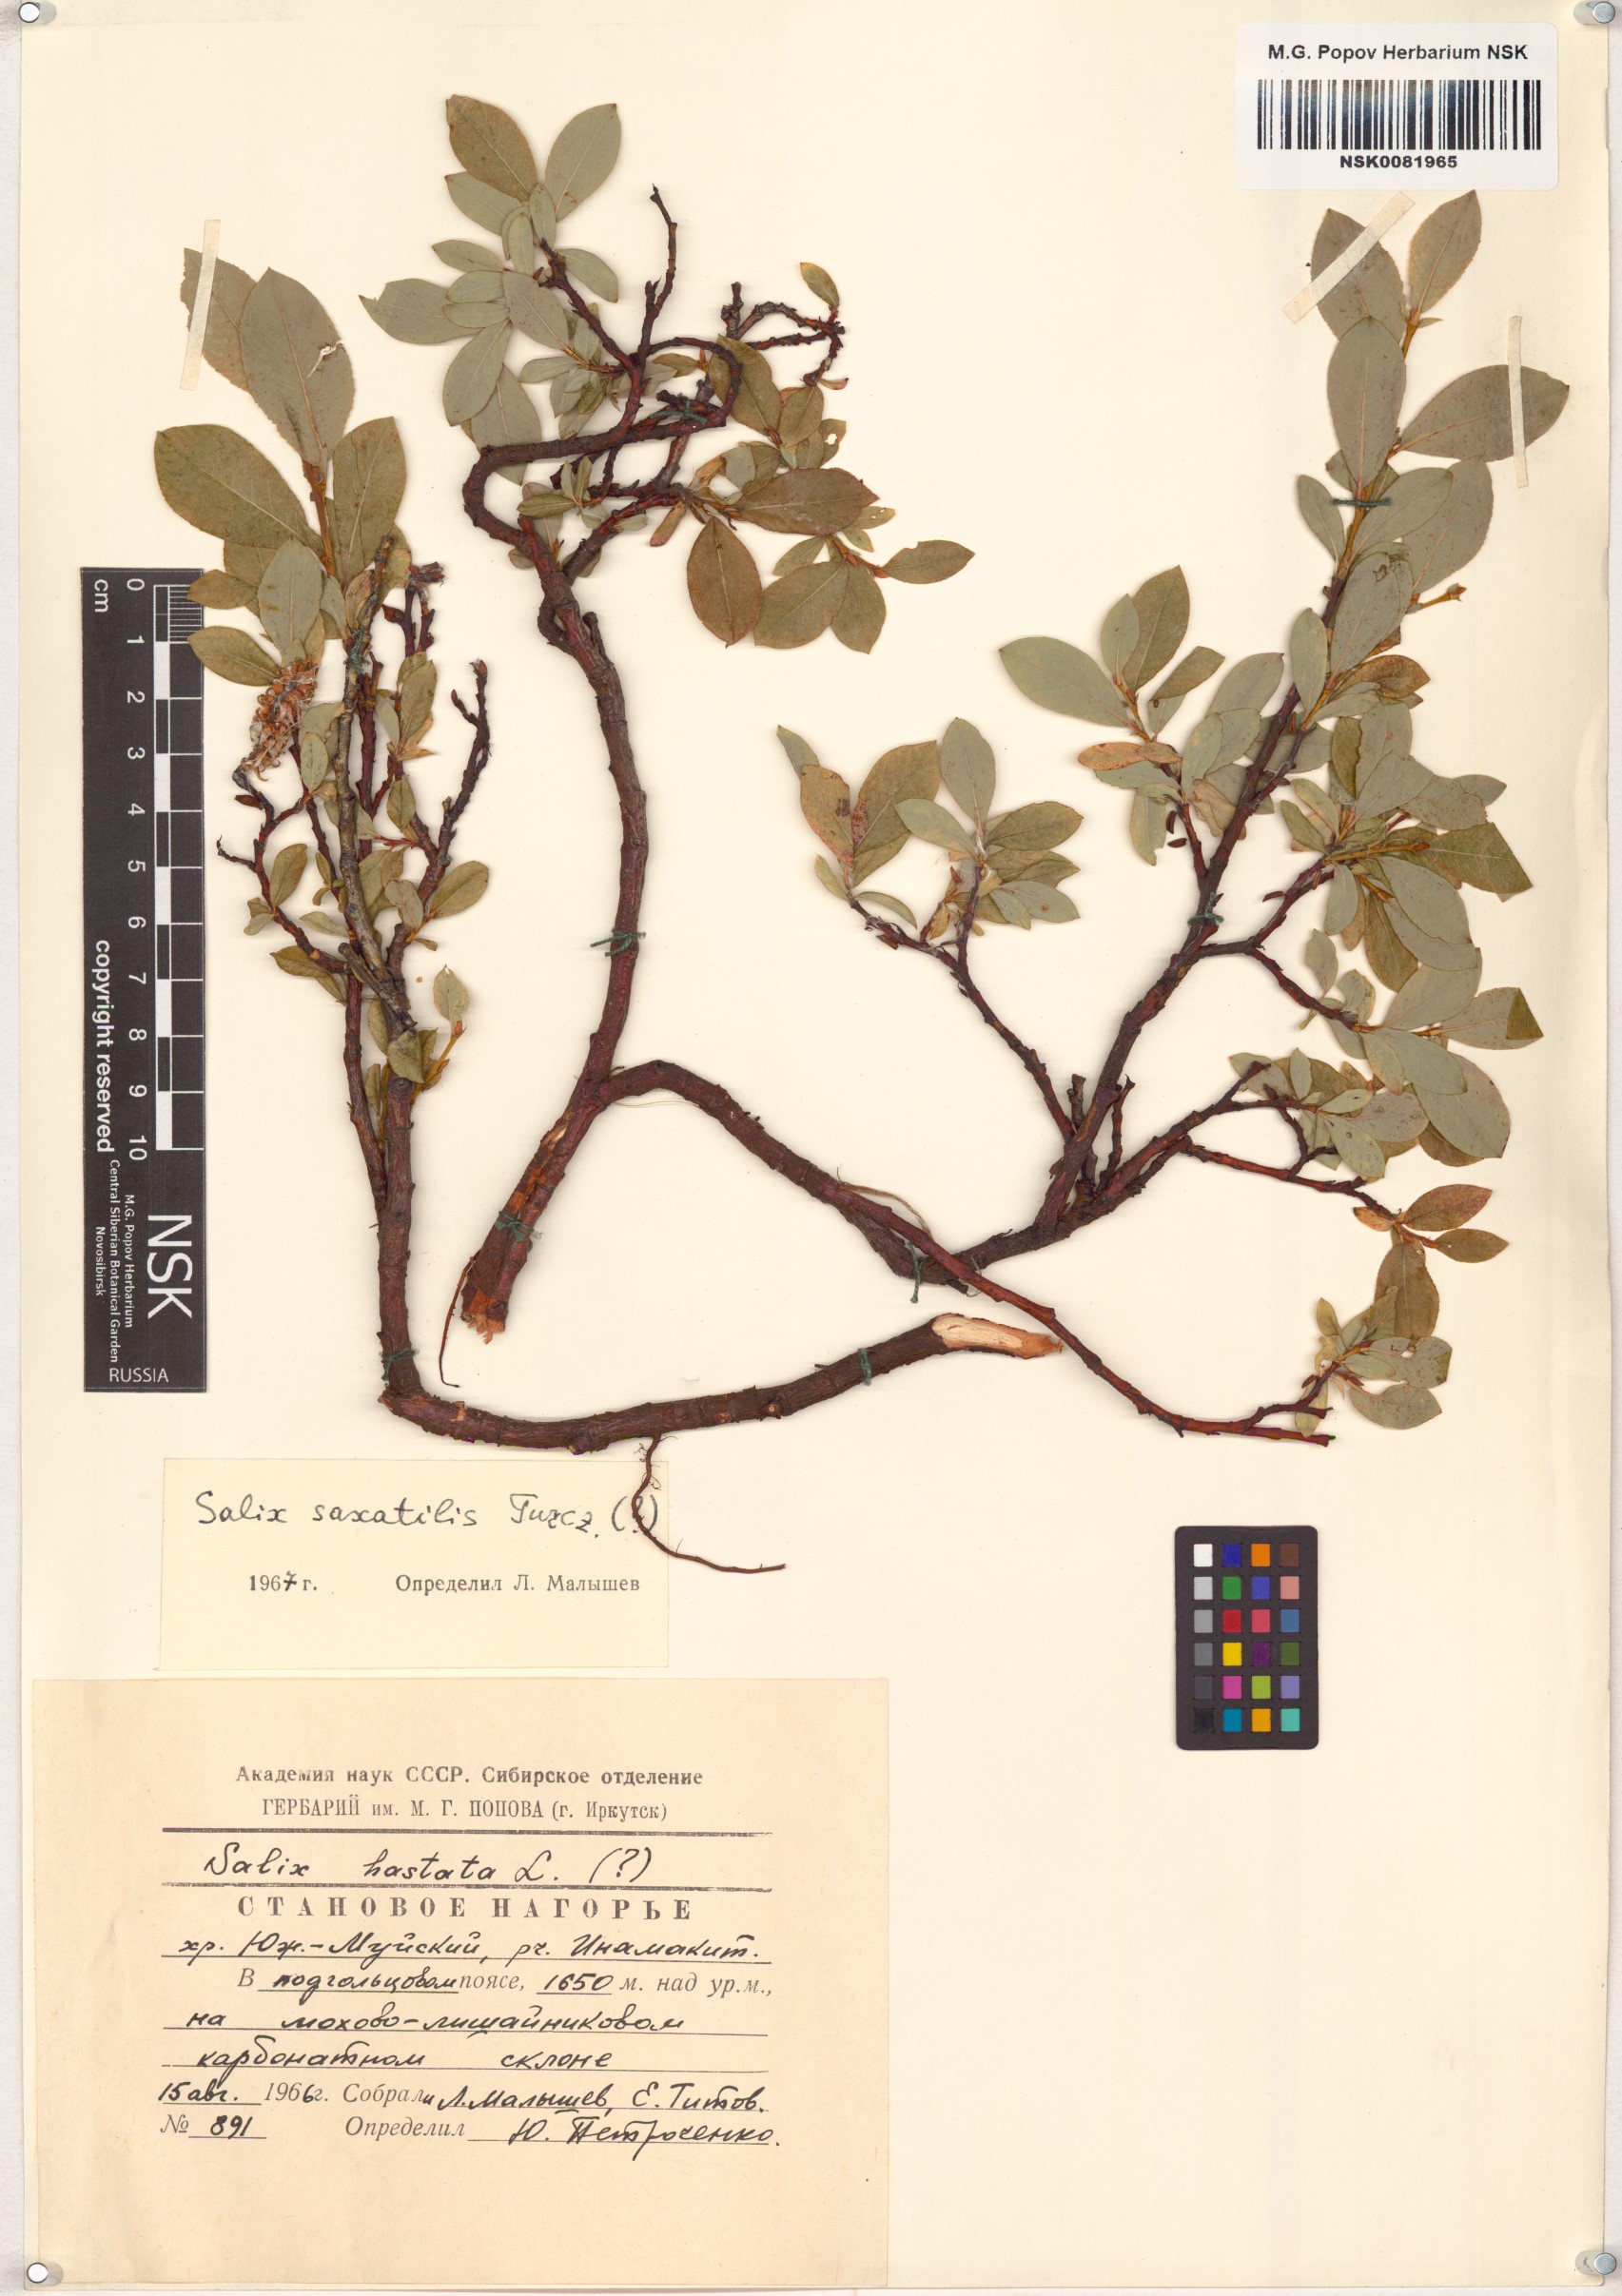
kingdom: Plantae
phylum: Tracheophyta
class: Magnoliopsida
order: Malpighiales
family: Salicaceae
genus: Salix
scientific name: Salix saxatilis
